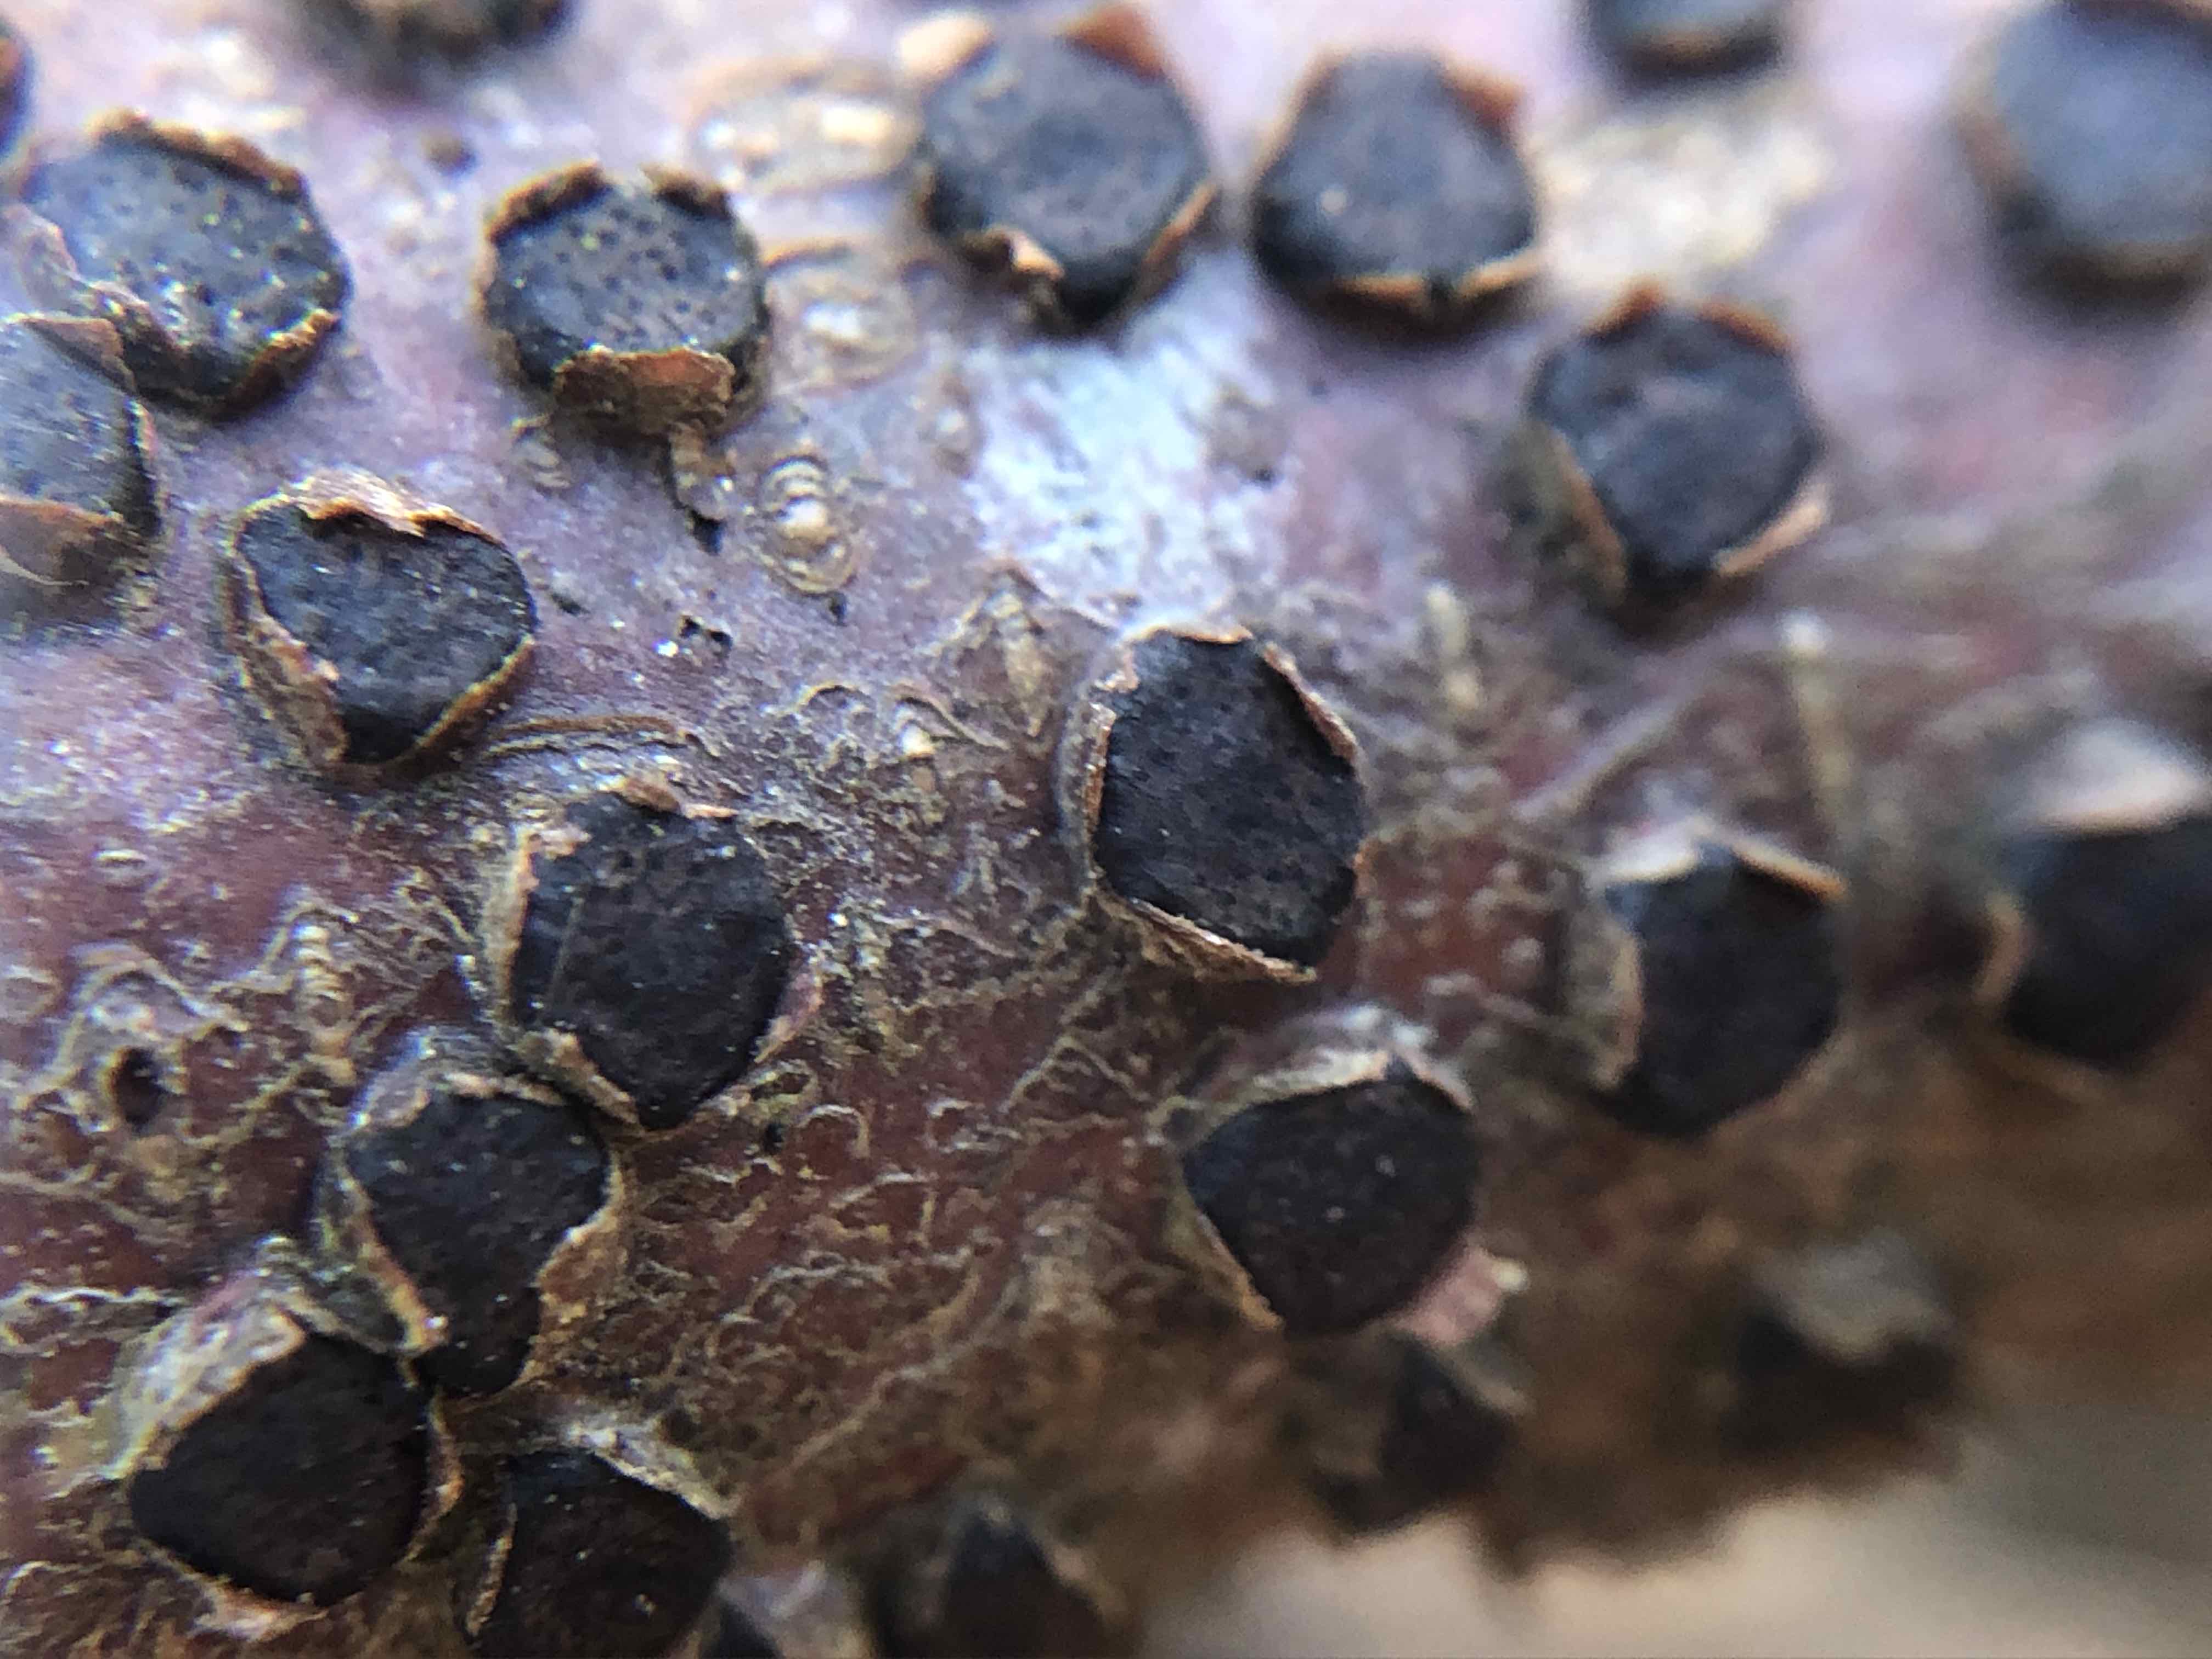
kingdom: Fungi
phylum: Ascomycota
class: Sordariomycetes
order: Xylariales
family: Diatrypaceae
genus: Diatrype
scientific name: Diatrype disciformis
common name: kant-kulskorpe
